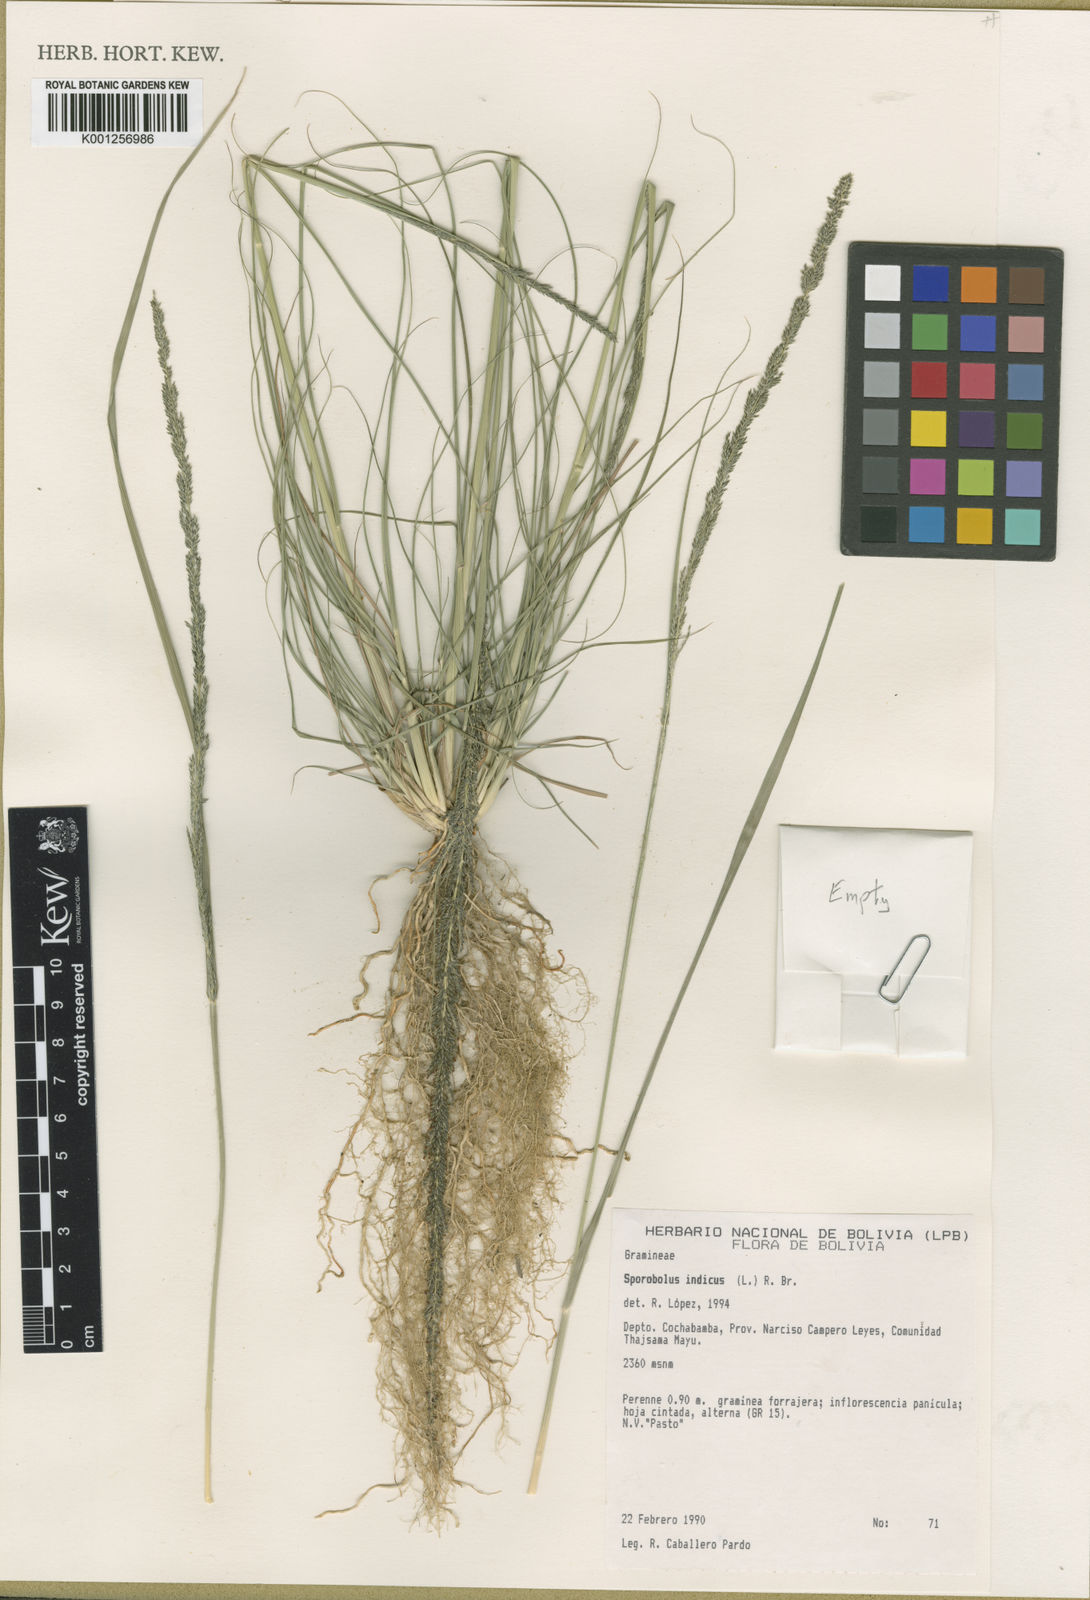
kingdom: Plantae
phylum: Tracheophyta
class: Liliopsida
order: Poales
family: Poaceae
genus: Sporobolus
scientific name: Sporobolus indicus
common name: Smut grass
